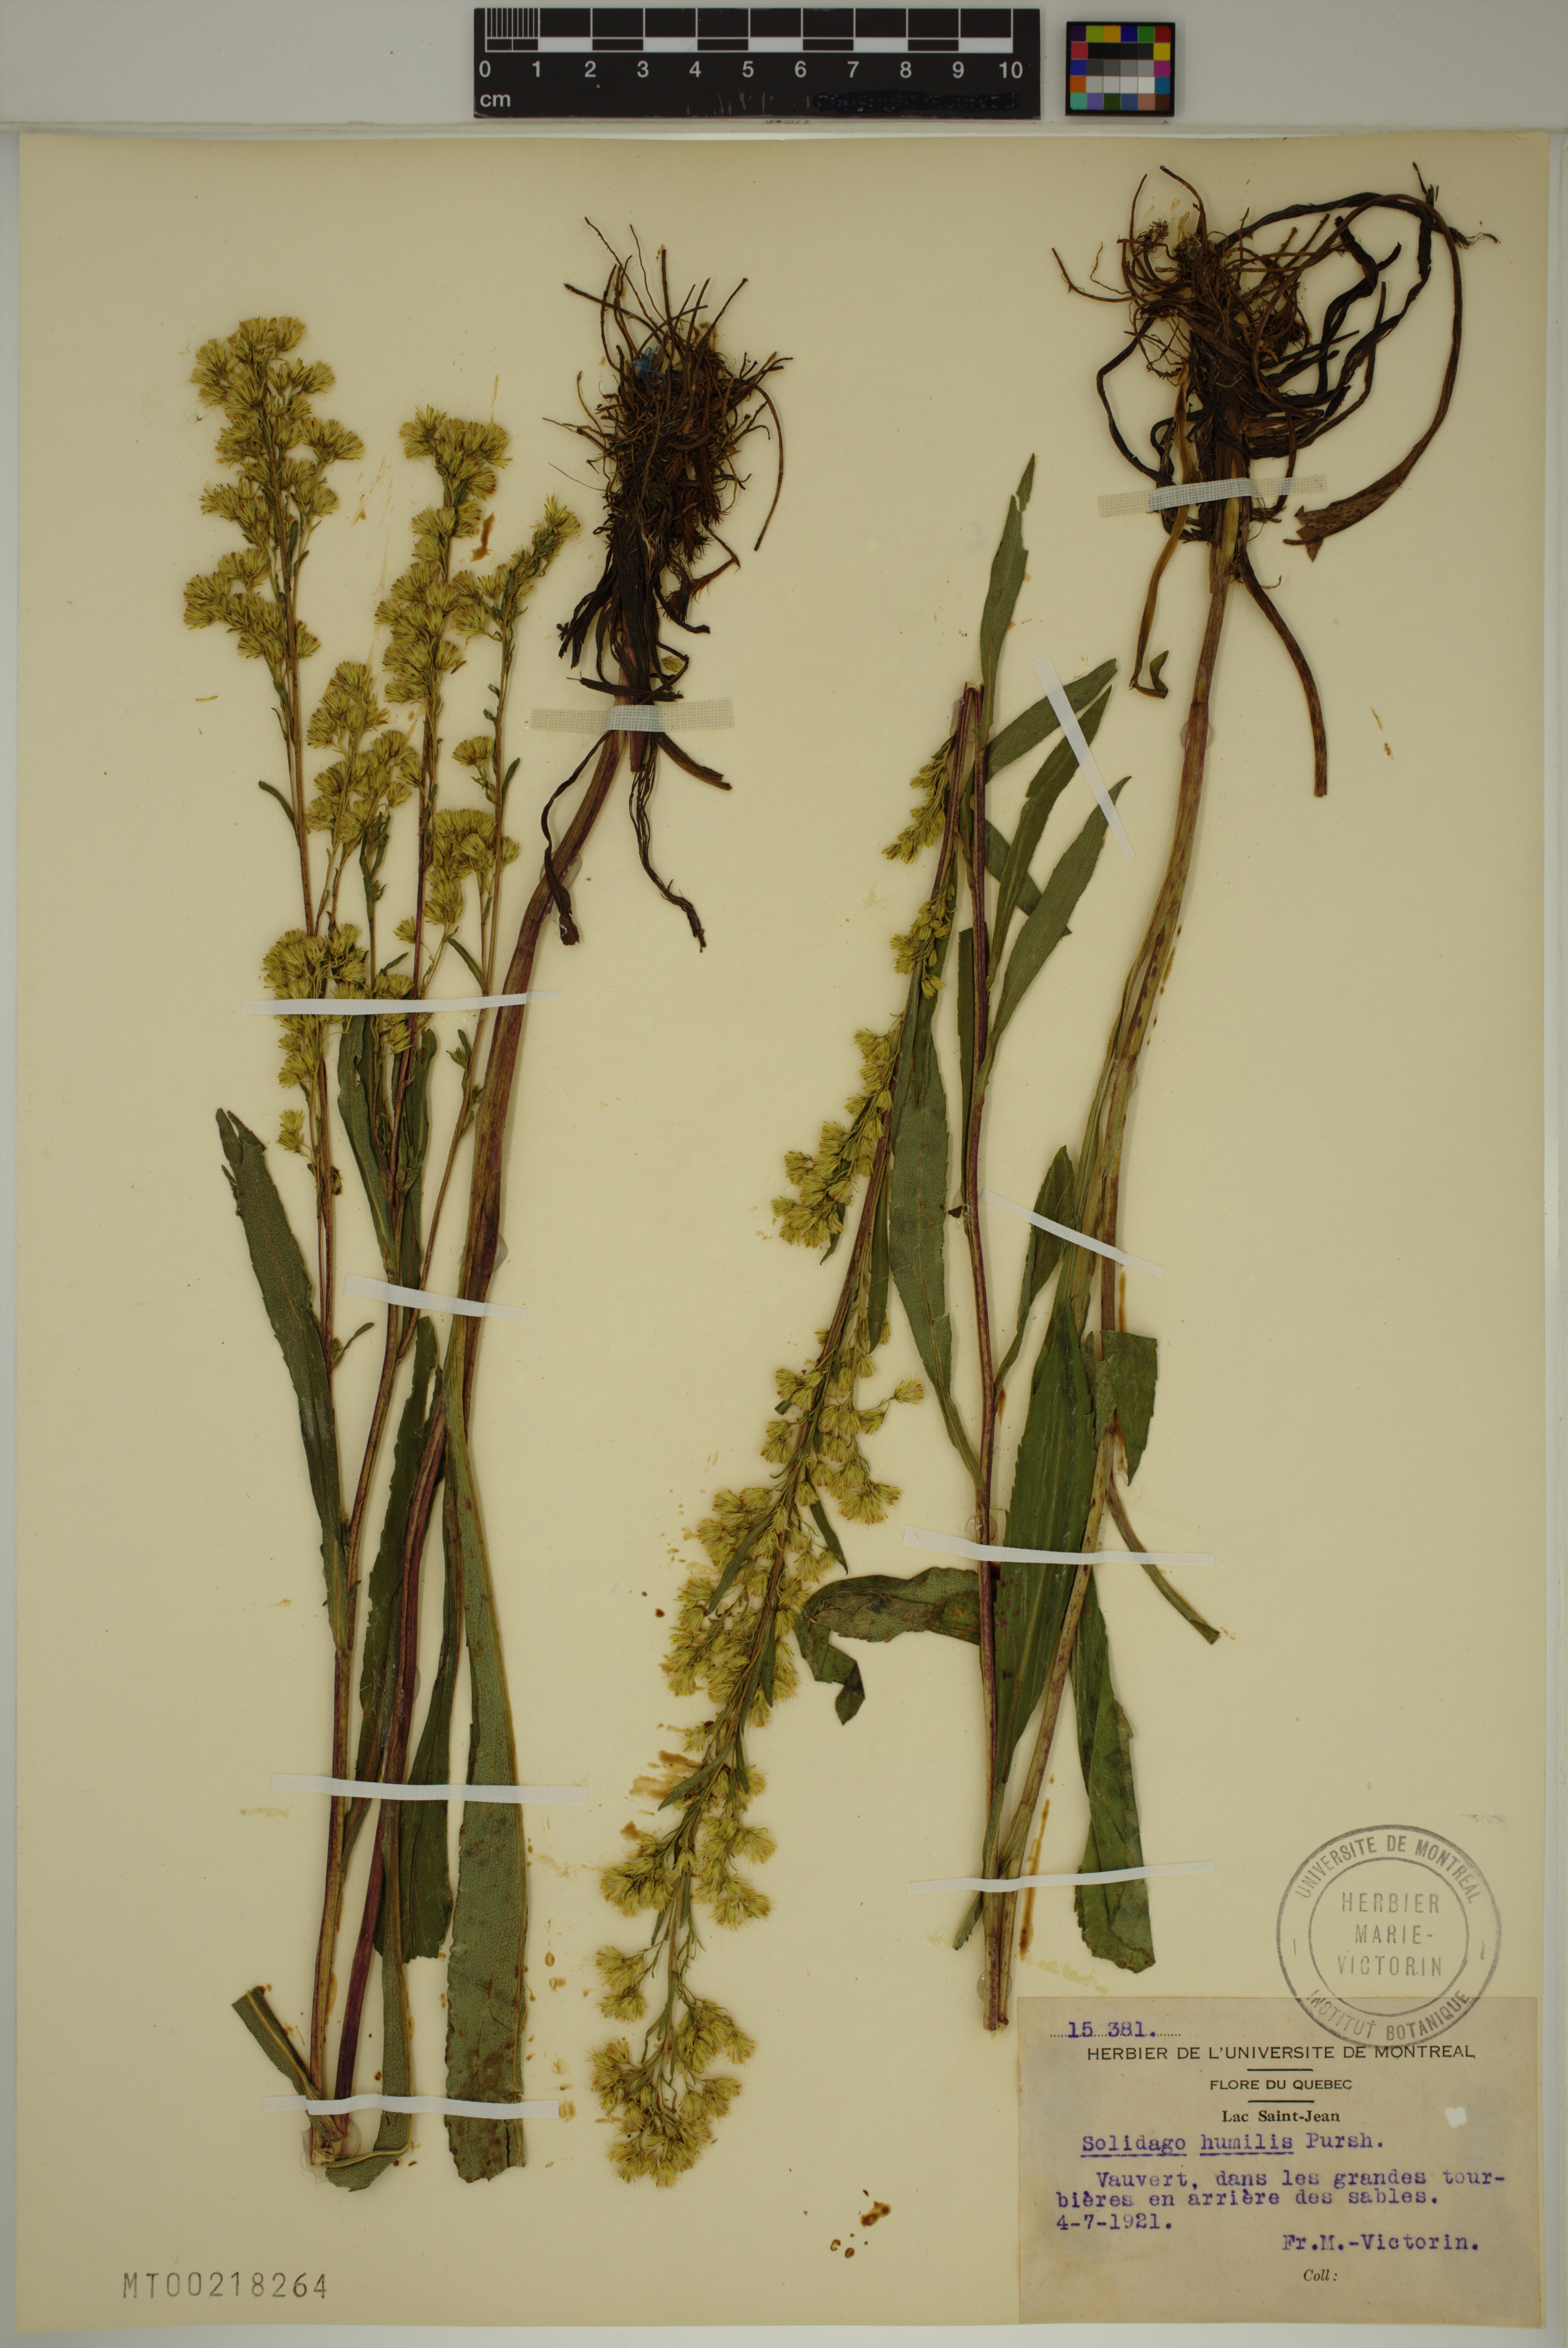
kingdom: Plantae
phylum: Tracheophyta
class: Magnoliopsida
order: Asterales
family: Asteraceae
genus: Solidago
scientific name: Solidago uliginosa
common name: Bog goldenrod
